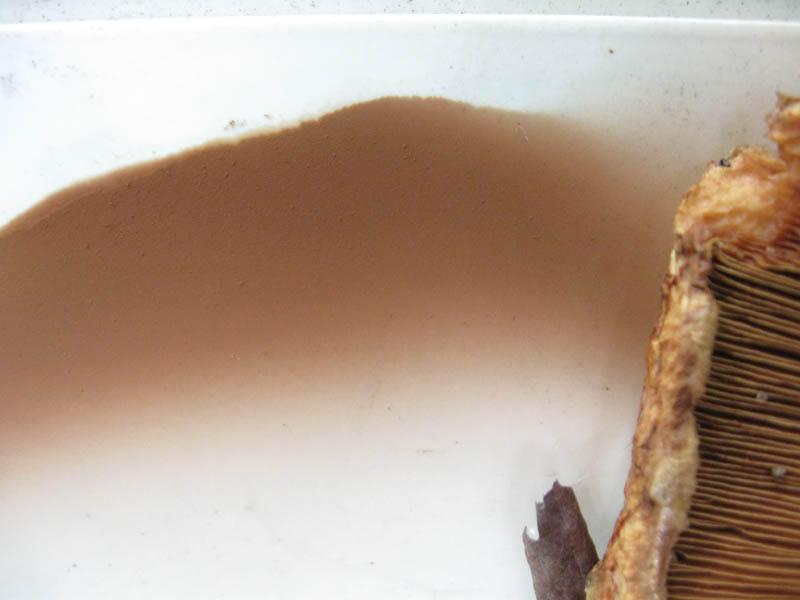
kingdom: Fungi
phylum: Basidiomycota
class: Agaricomycetes
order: Boletales
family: Paxillaceae
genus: Paxillus
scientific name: Paxillus obscurisporus
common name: mahognisporet netbladhat
